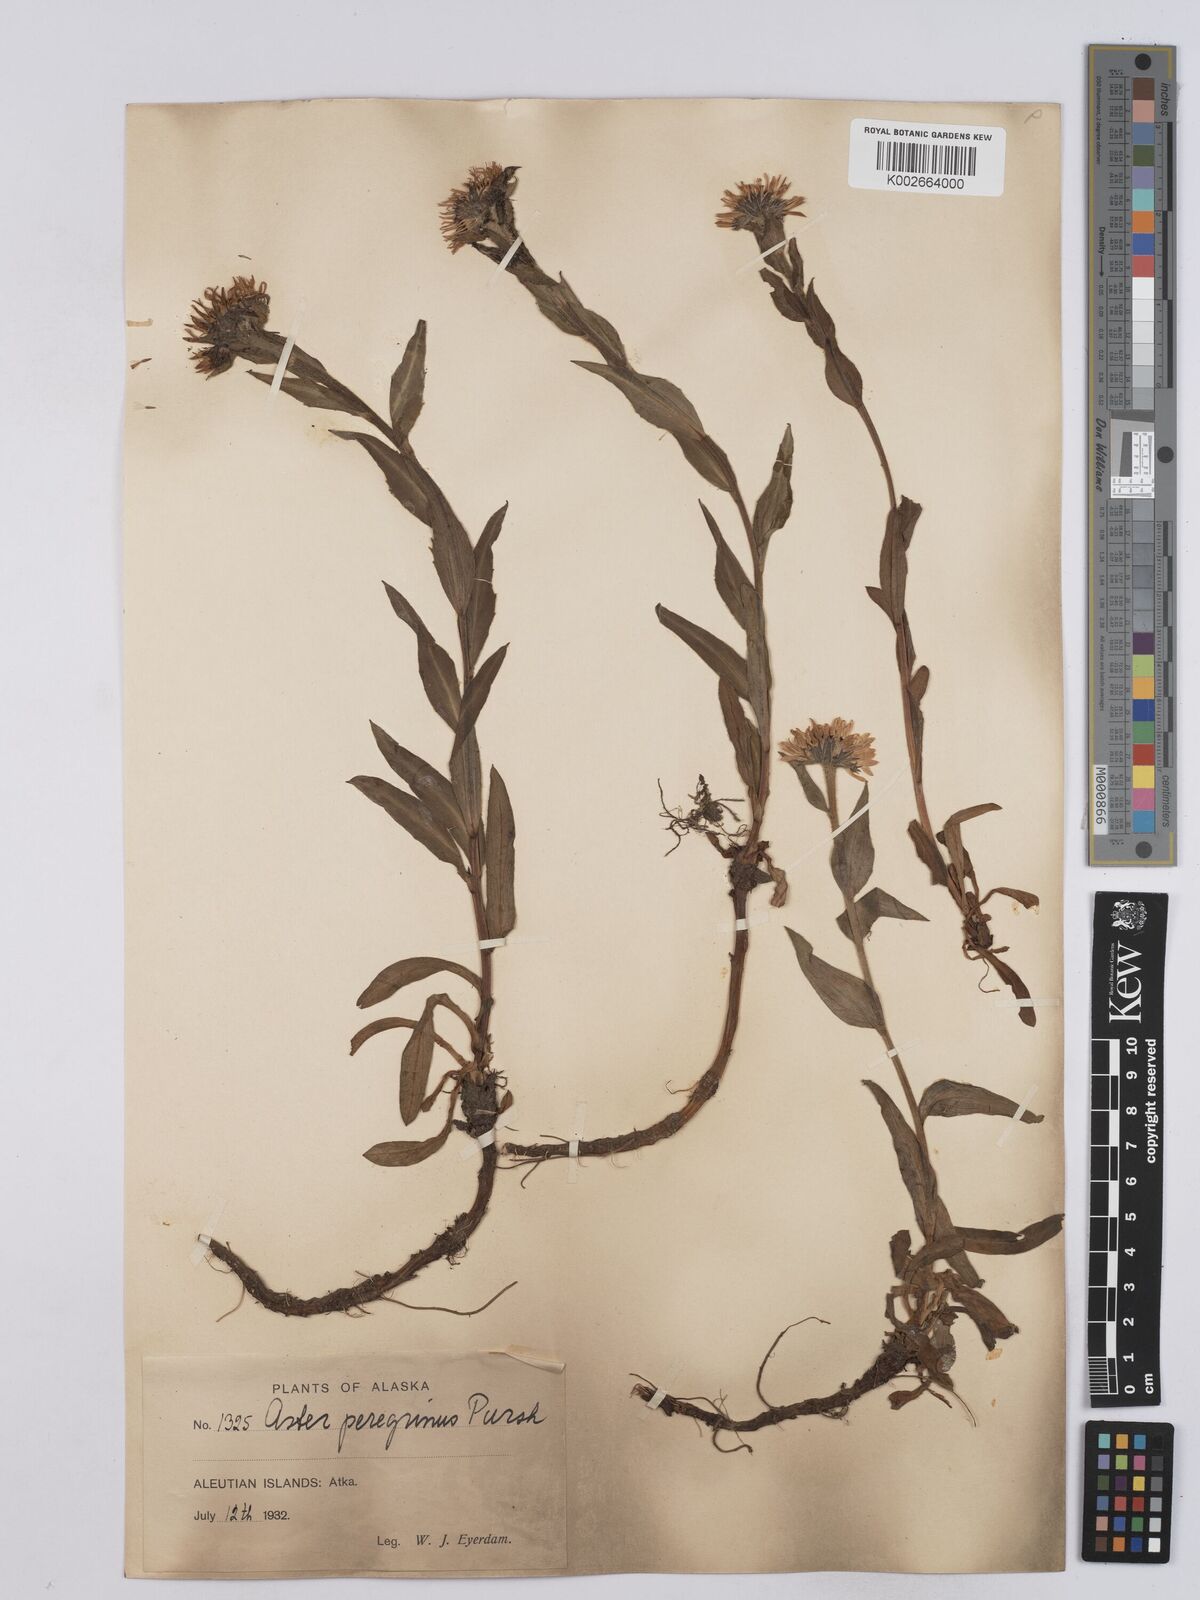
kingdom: Plantae
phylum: Tracheophyta
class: Magnoliopsida
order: Asterales
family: Asteraceae
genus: Erigeron
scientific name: Erigeron peregrinus
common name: Peregrine fleabane
